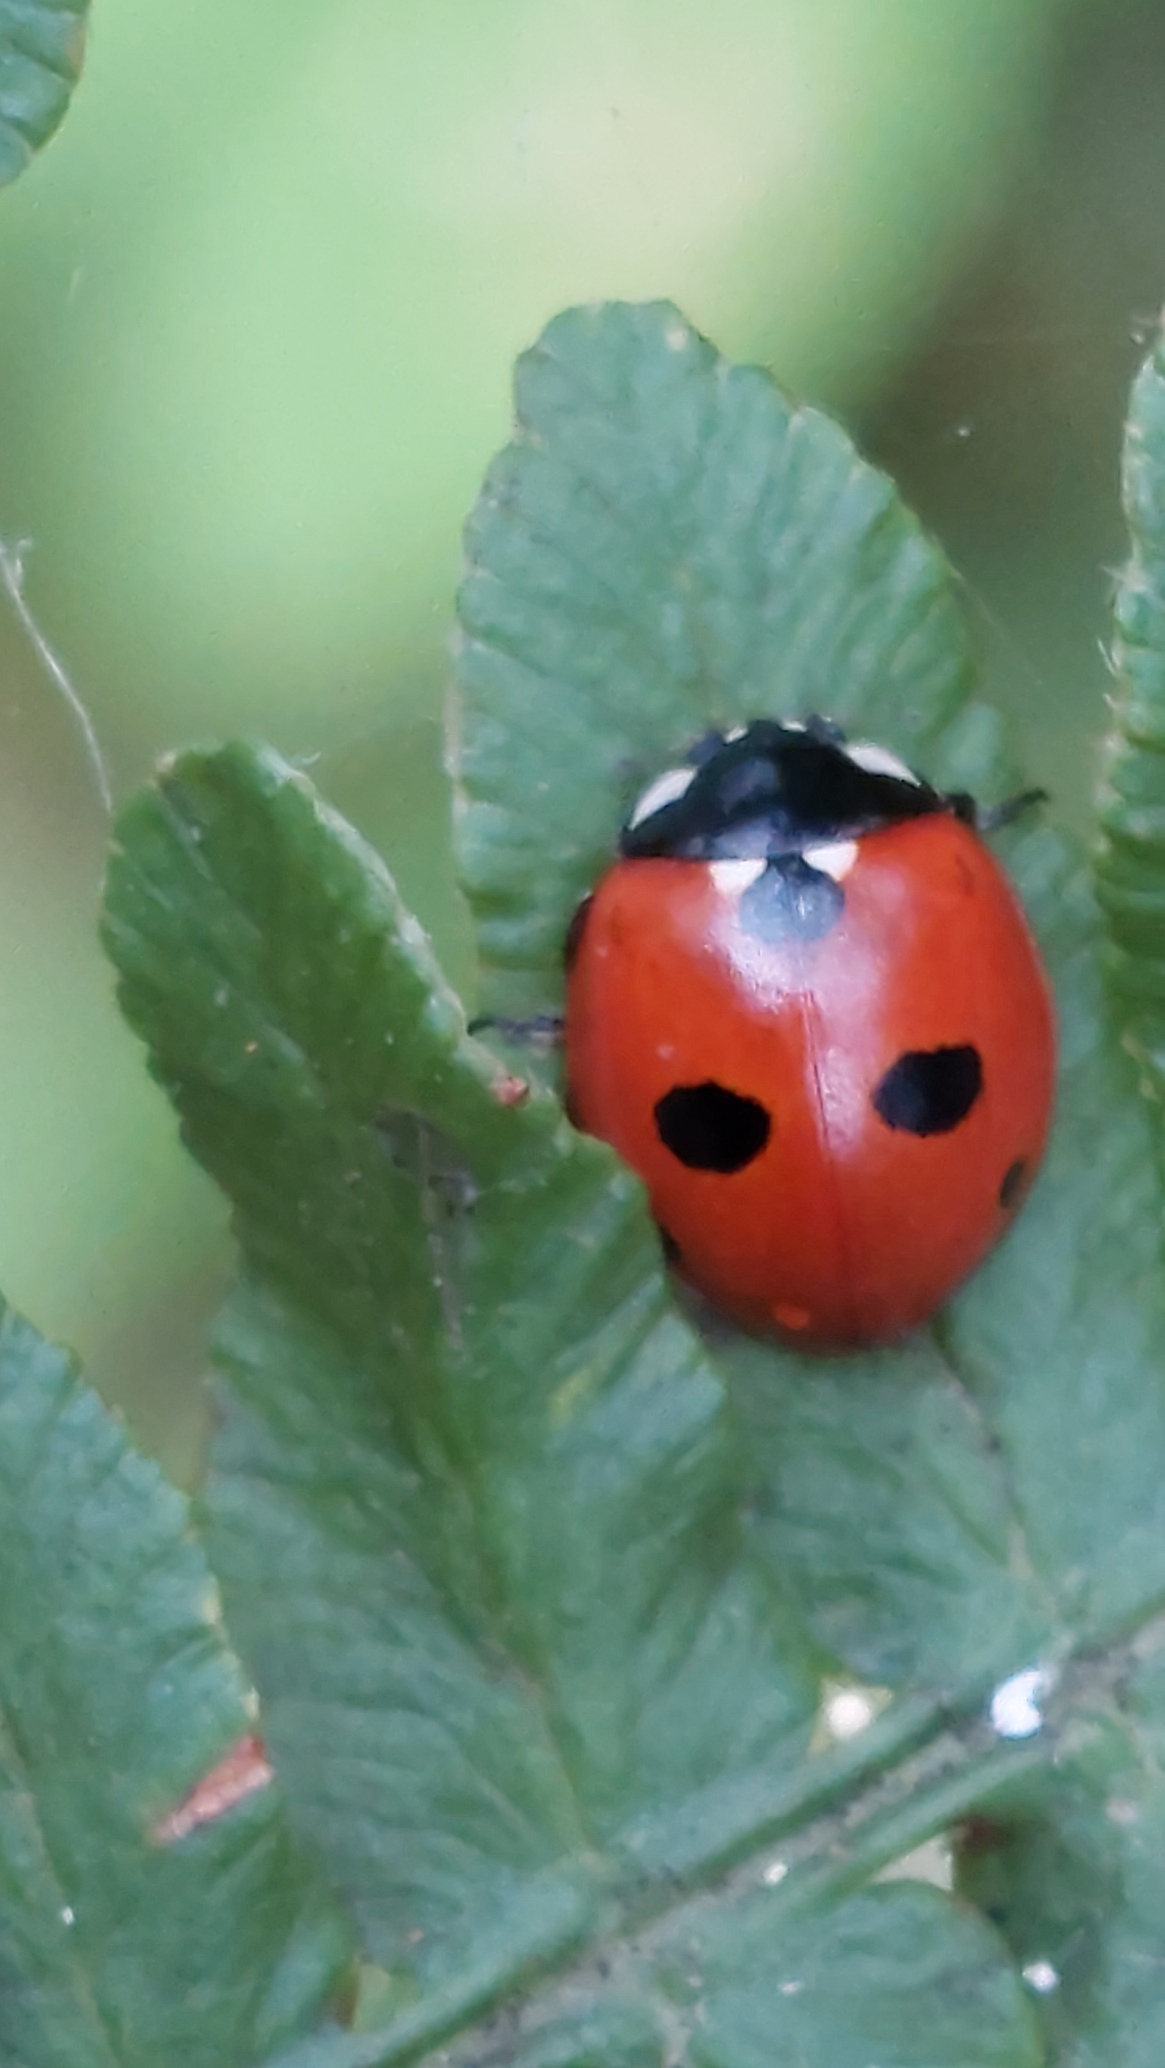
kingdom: Animalia
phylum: Arthropoda
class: Insecta
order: Coleoptera
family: Coccinellidae
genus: Coccinella
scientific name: Coccinella quinquepunctata
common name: Femplettet mariehøne
